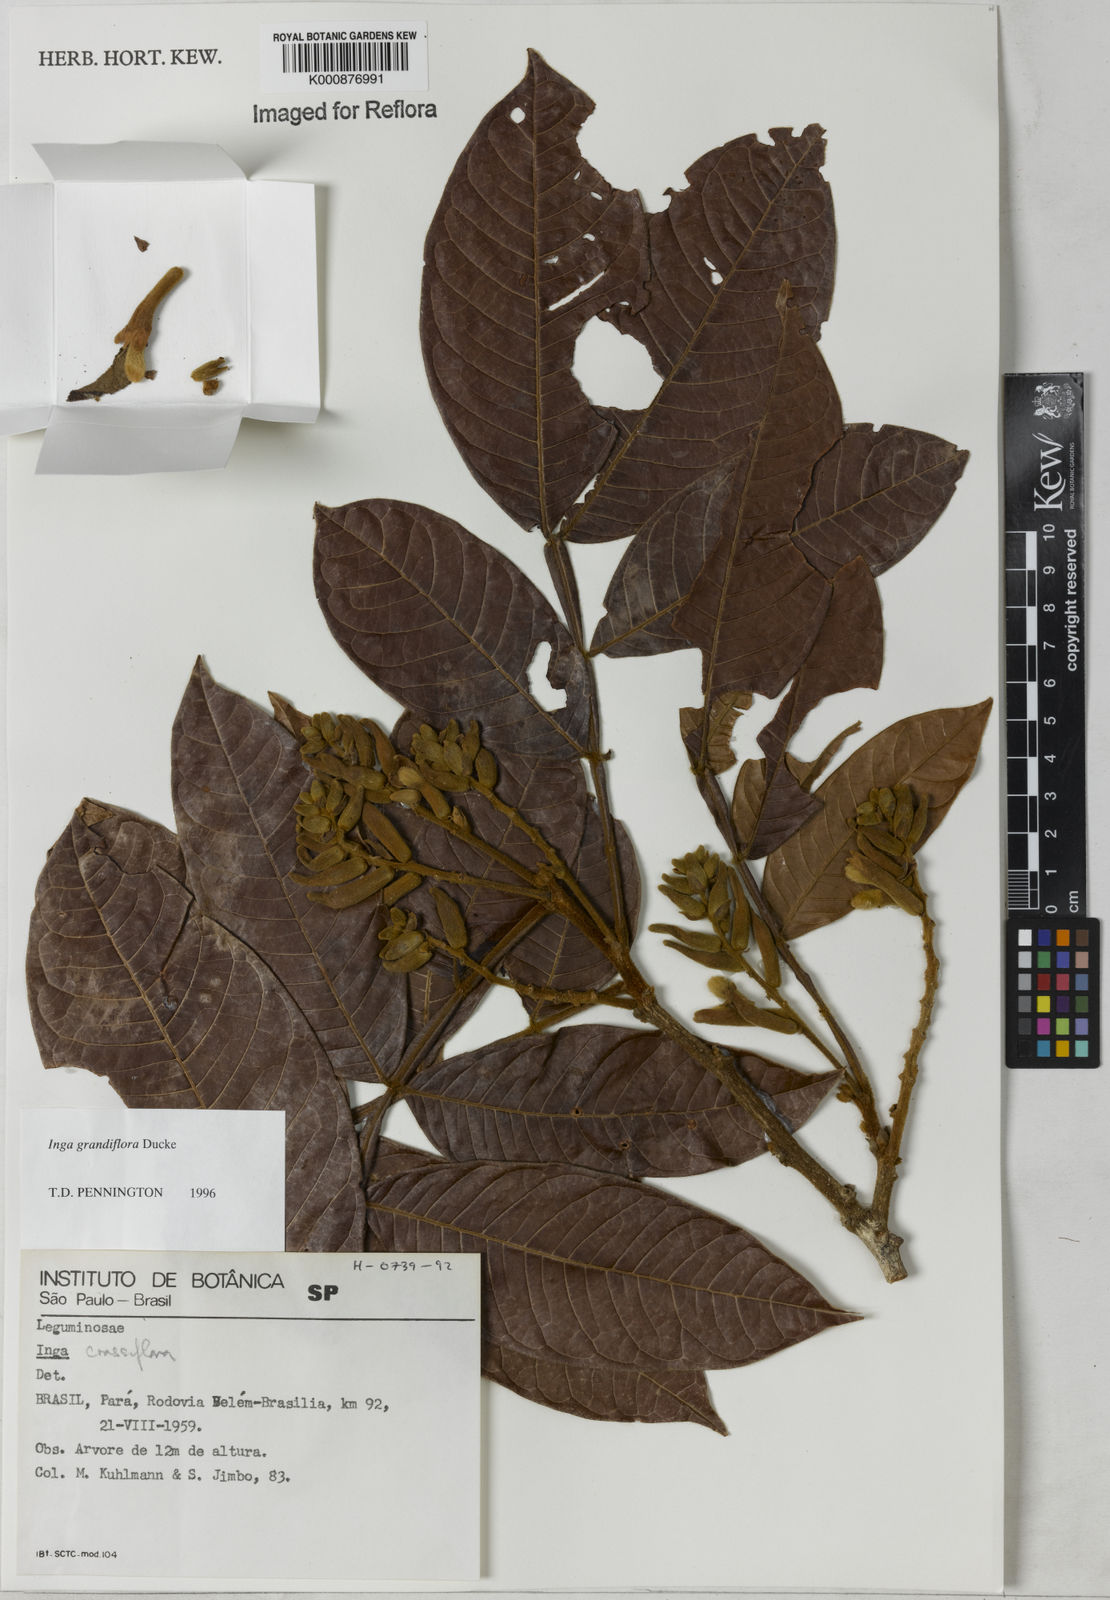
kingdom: Plantae
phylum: Tracheophyta
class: Magnoliopsida
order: Fabales
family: Fabaceae
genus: Inga
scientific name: Inga crassiflora
